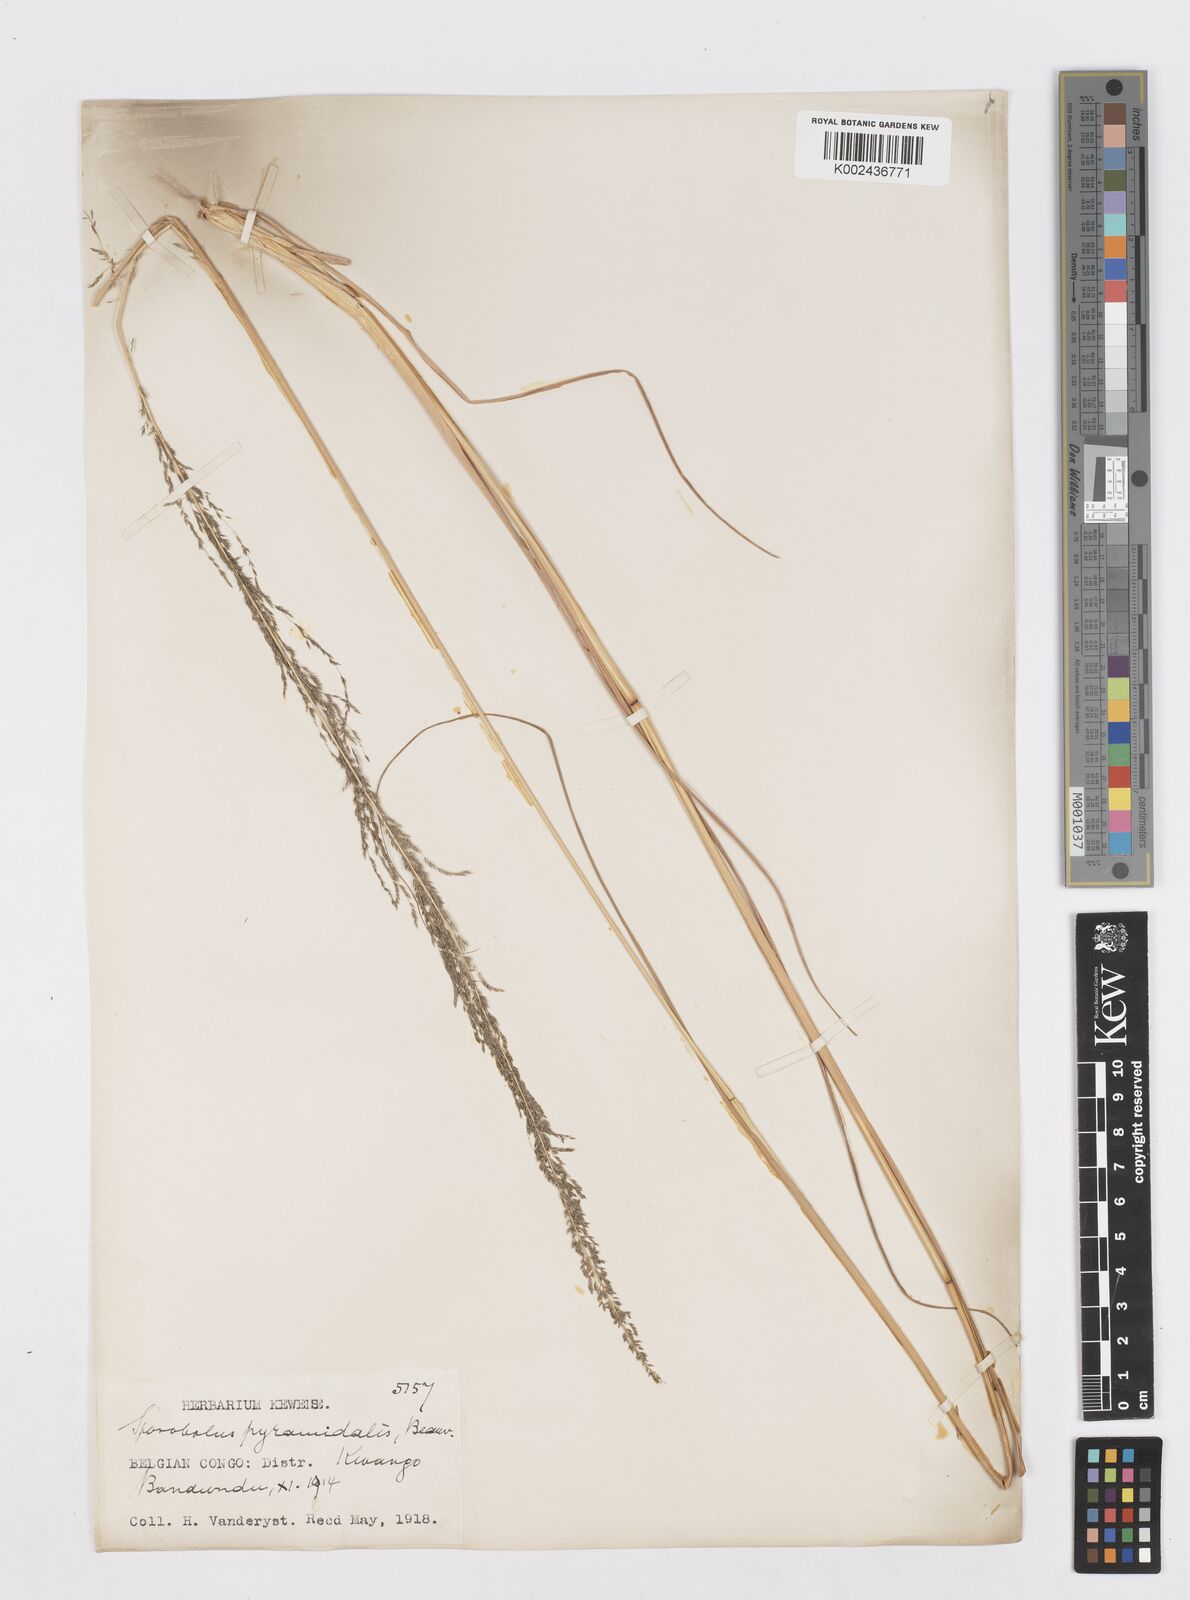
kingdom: Plantae
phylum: Tracheophyta
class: Liliopsida
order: Poales
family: Poaceae
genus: Sporobolus
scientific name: Sporobolus pyramidalis
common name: West indian dropseed
